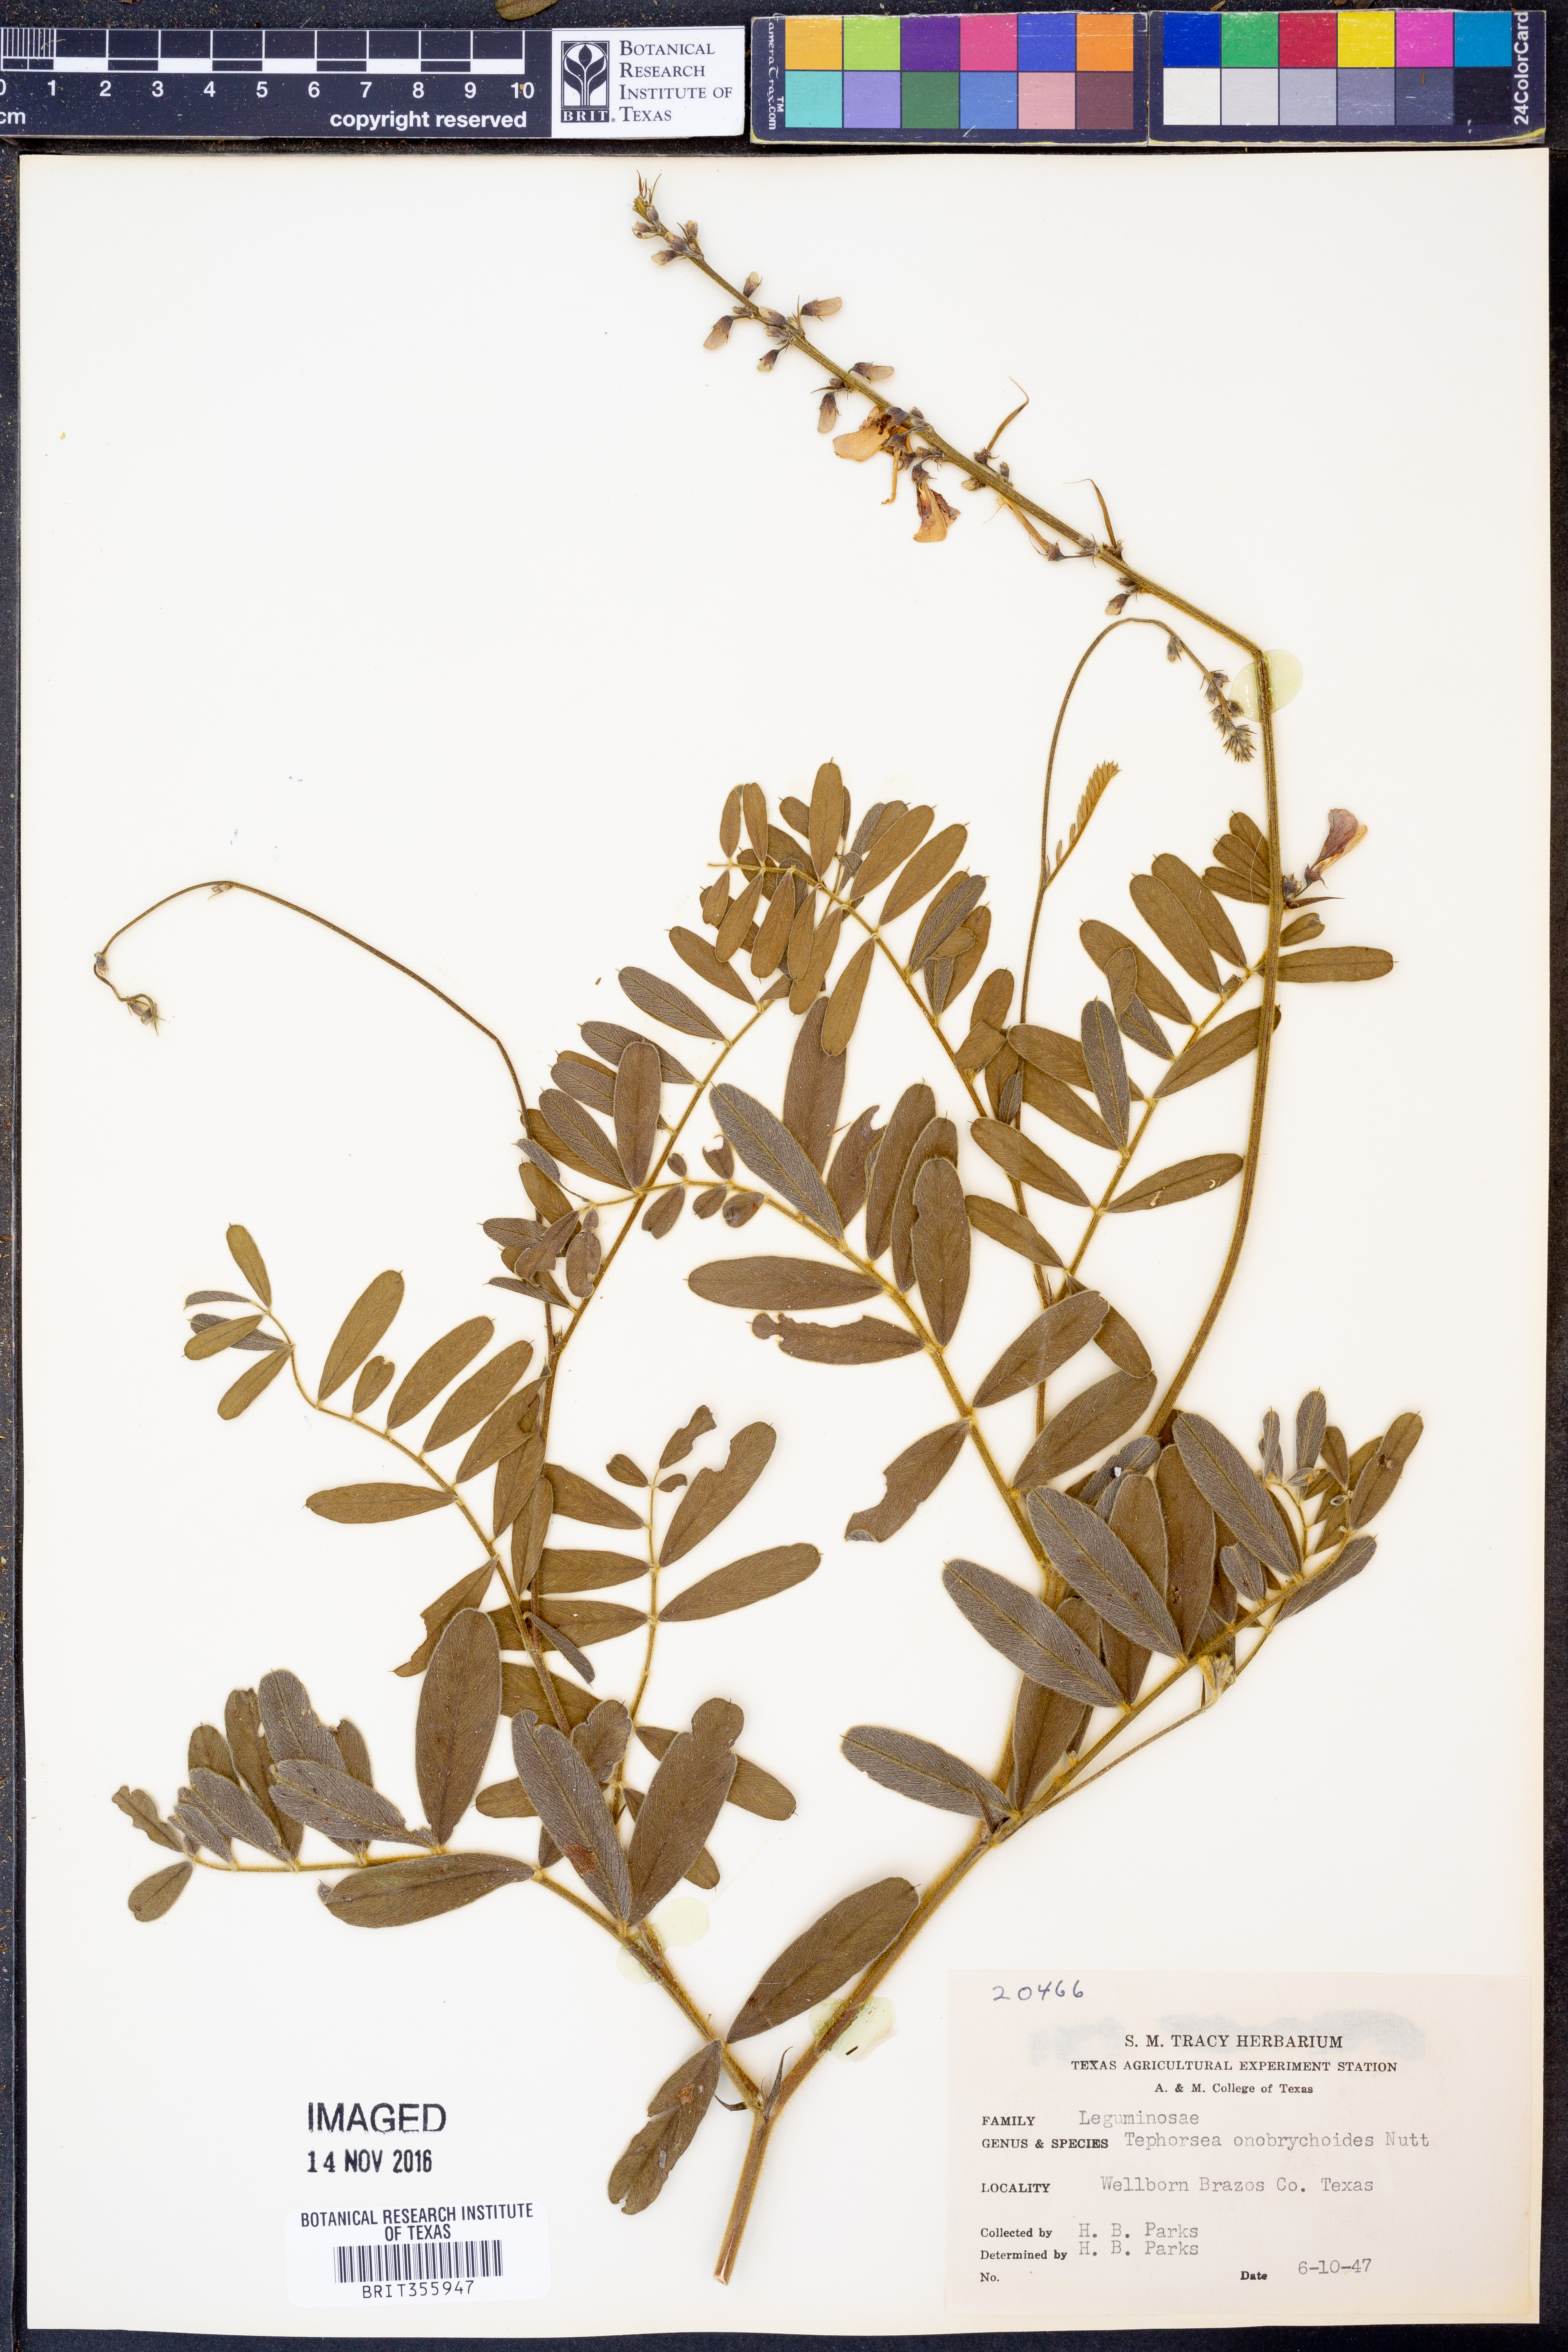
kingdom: Plantae
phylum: Tracheophyta
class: Magnoliopsida
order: Fabales
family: Fabaceae
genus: Tephrosia
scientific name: Tephrosia onobrychoides
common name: Multi-bloom hoary-pea
